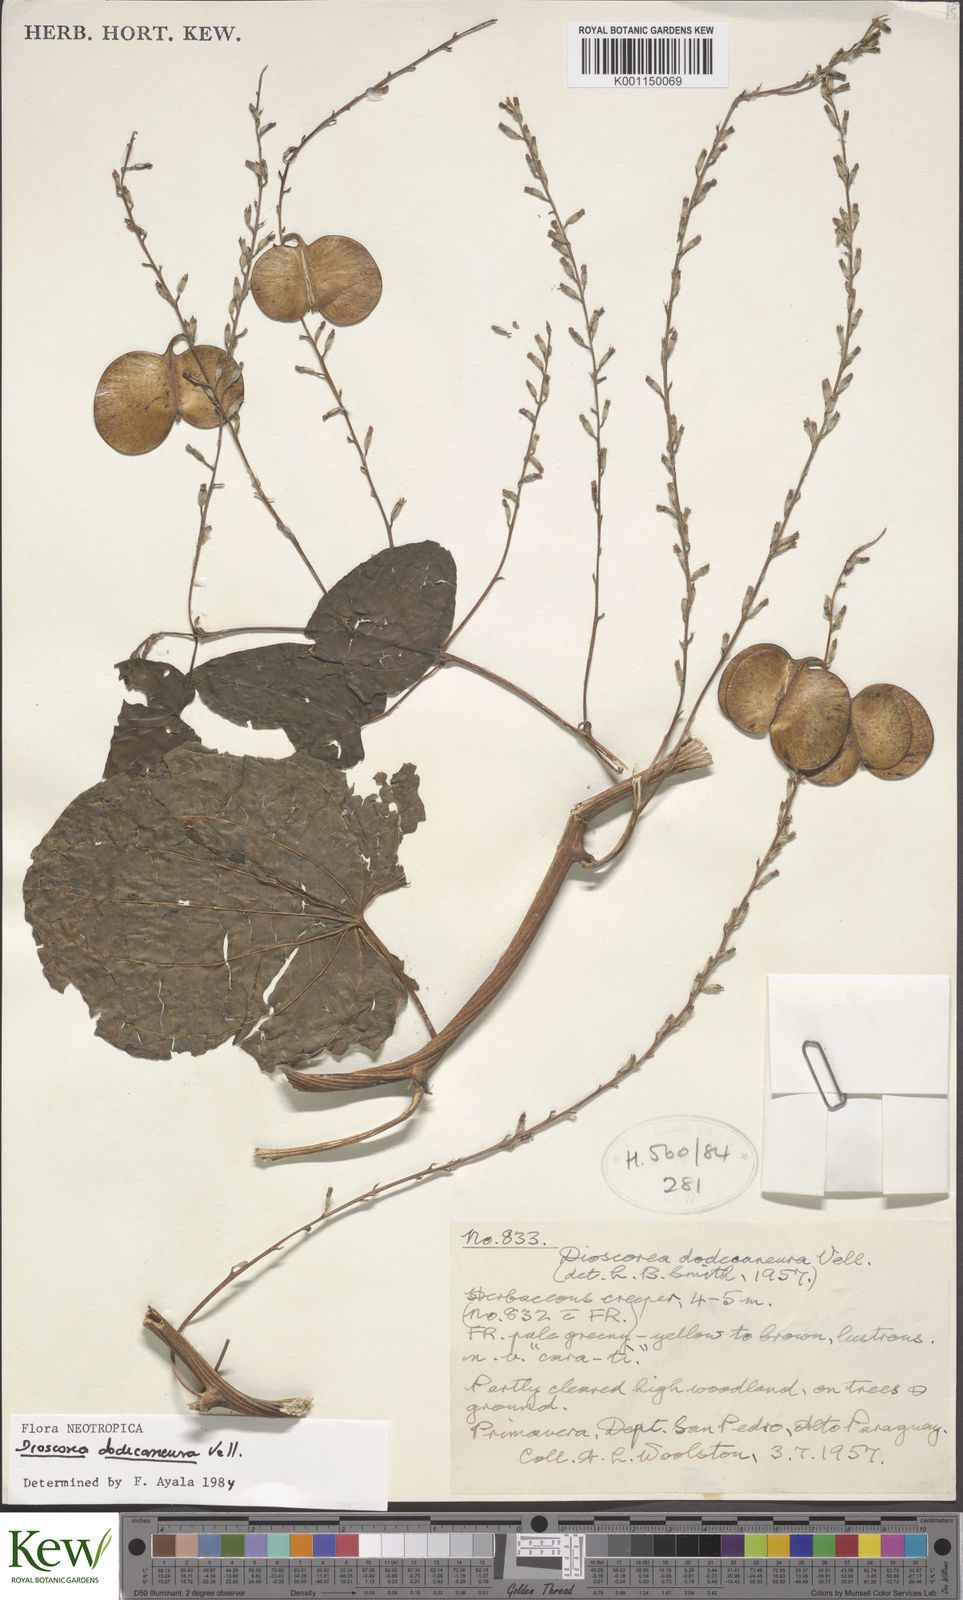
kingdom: Plantae
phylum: Tracheophyta
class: Liliopsida
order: Dioscoreales
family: Dioscoreaceae
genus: Dioscorea
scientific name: Dioscorea dodecaneura
